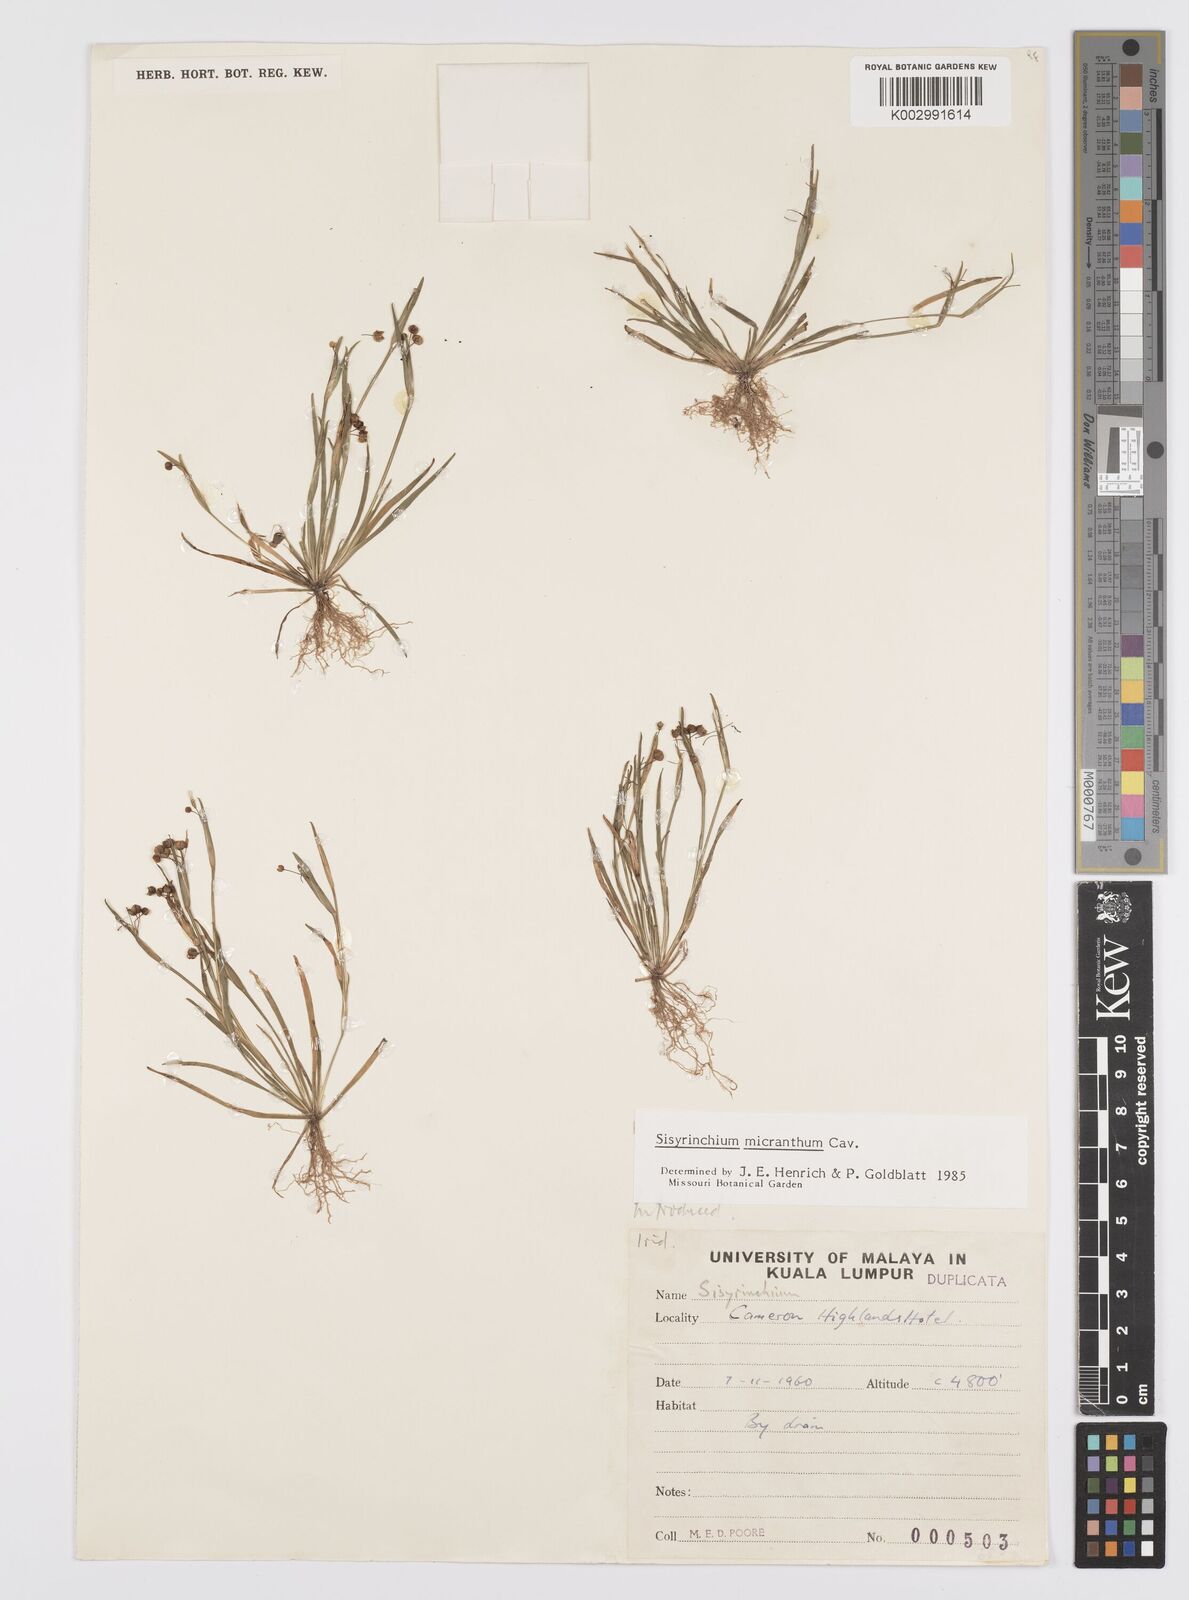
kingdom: Plantae
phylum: Tracheophyta
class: Liliopsida
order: Asparagales
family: Iridaceae
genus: Sisyrinchium
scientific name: Sisyrinchium micranthum
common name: Bermuda pigroot
